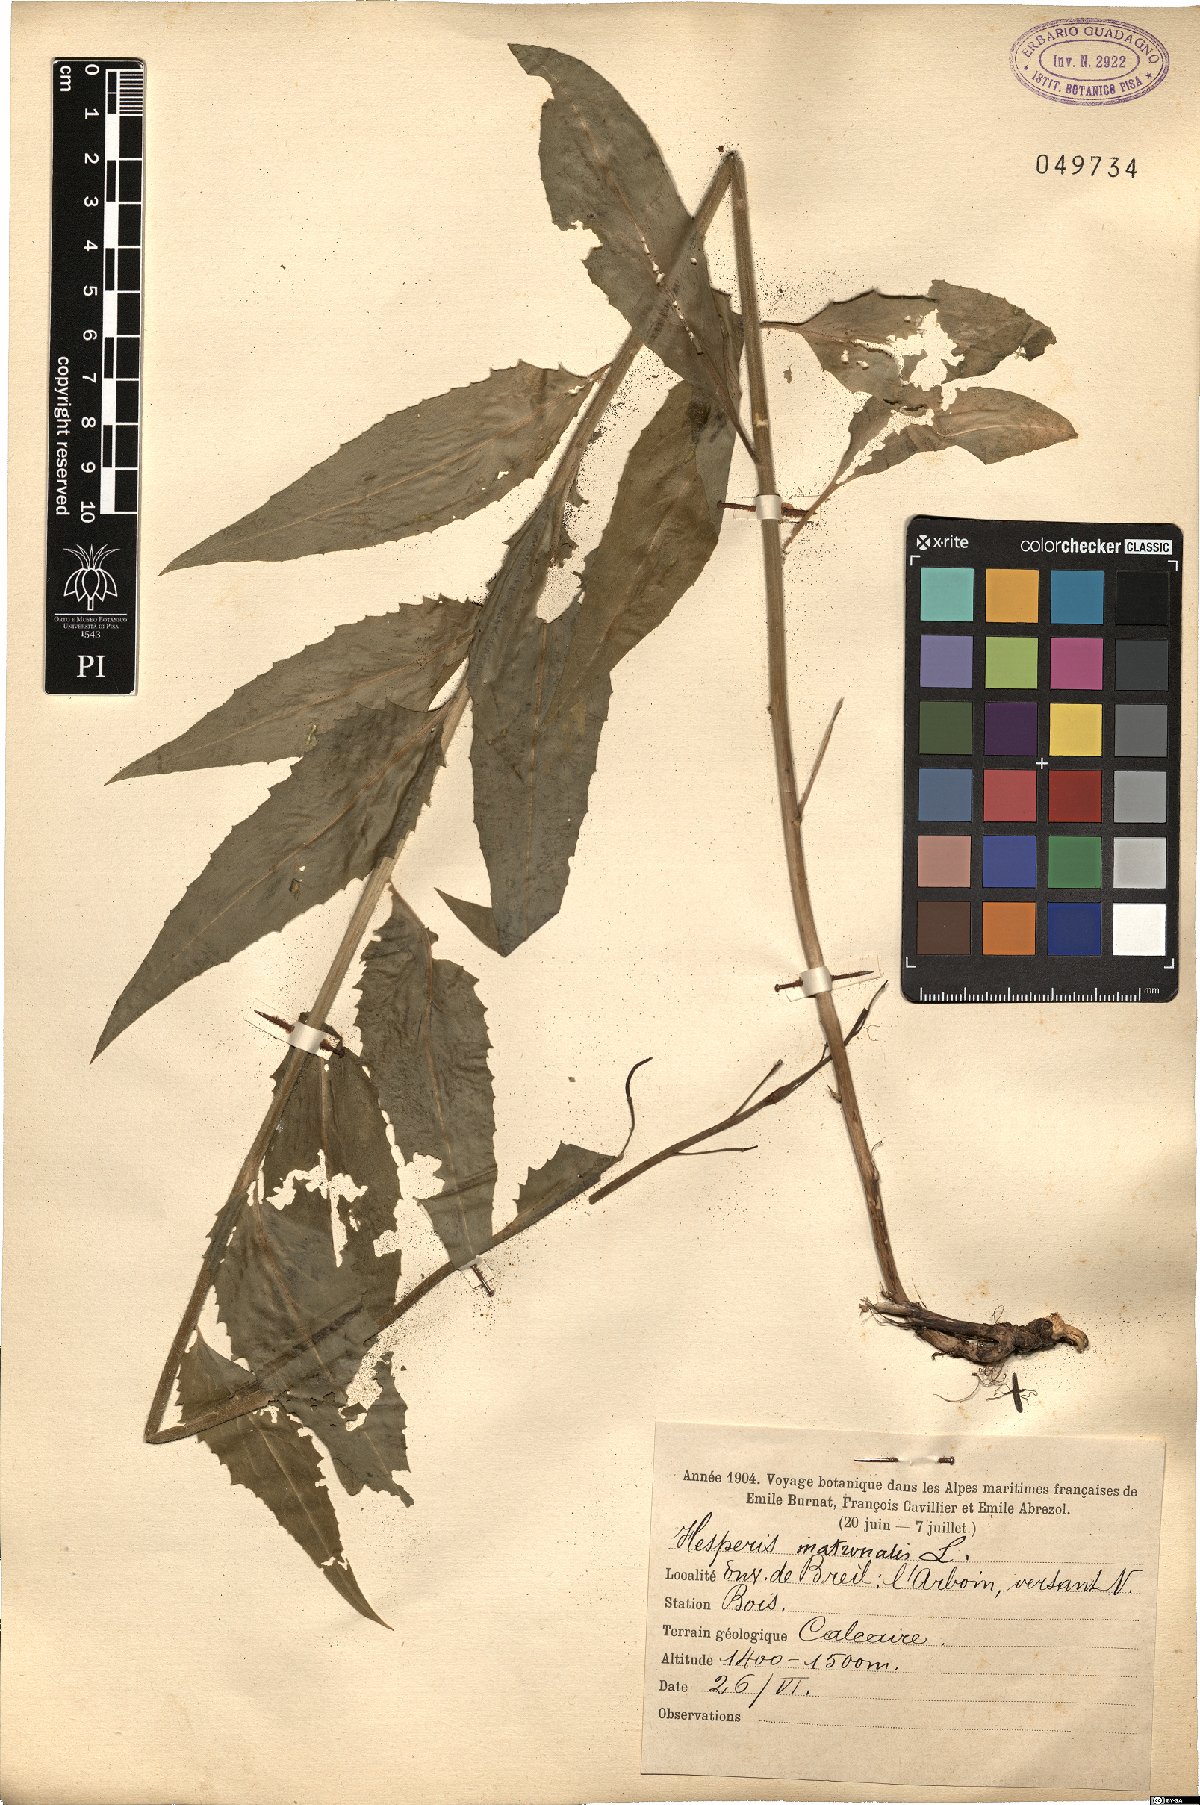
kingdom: Plantae
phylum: Tracheophyta
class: Magnoliopsida
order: Brassicales
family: Brassicaceae
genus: Hesperis
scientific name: Hesperis matronalis
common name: Dame's-violet
